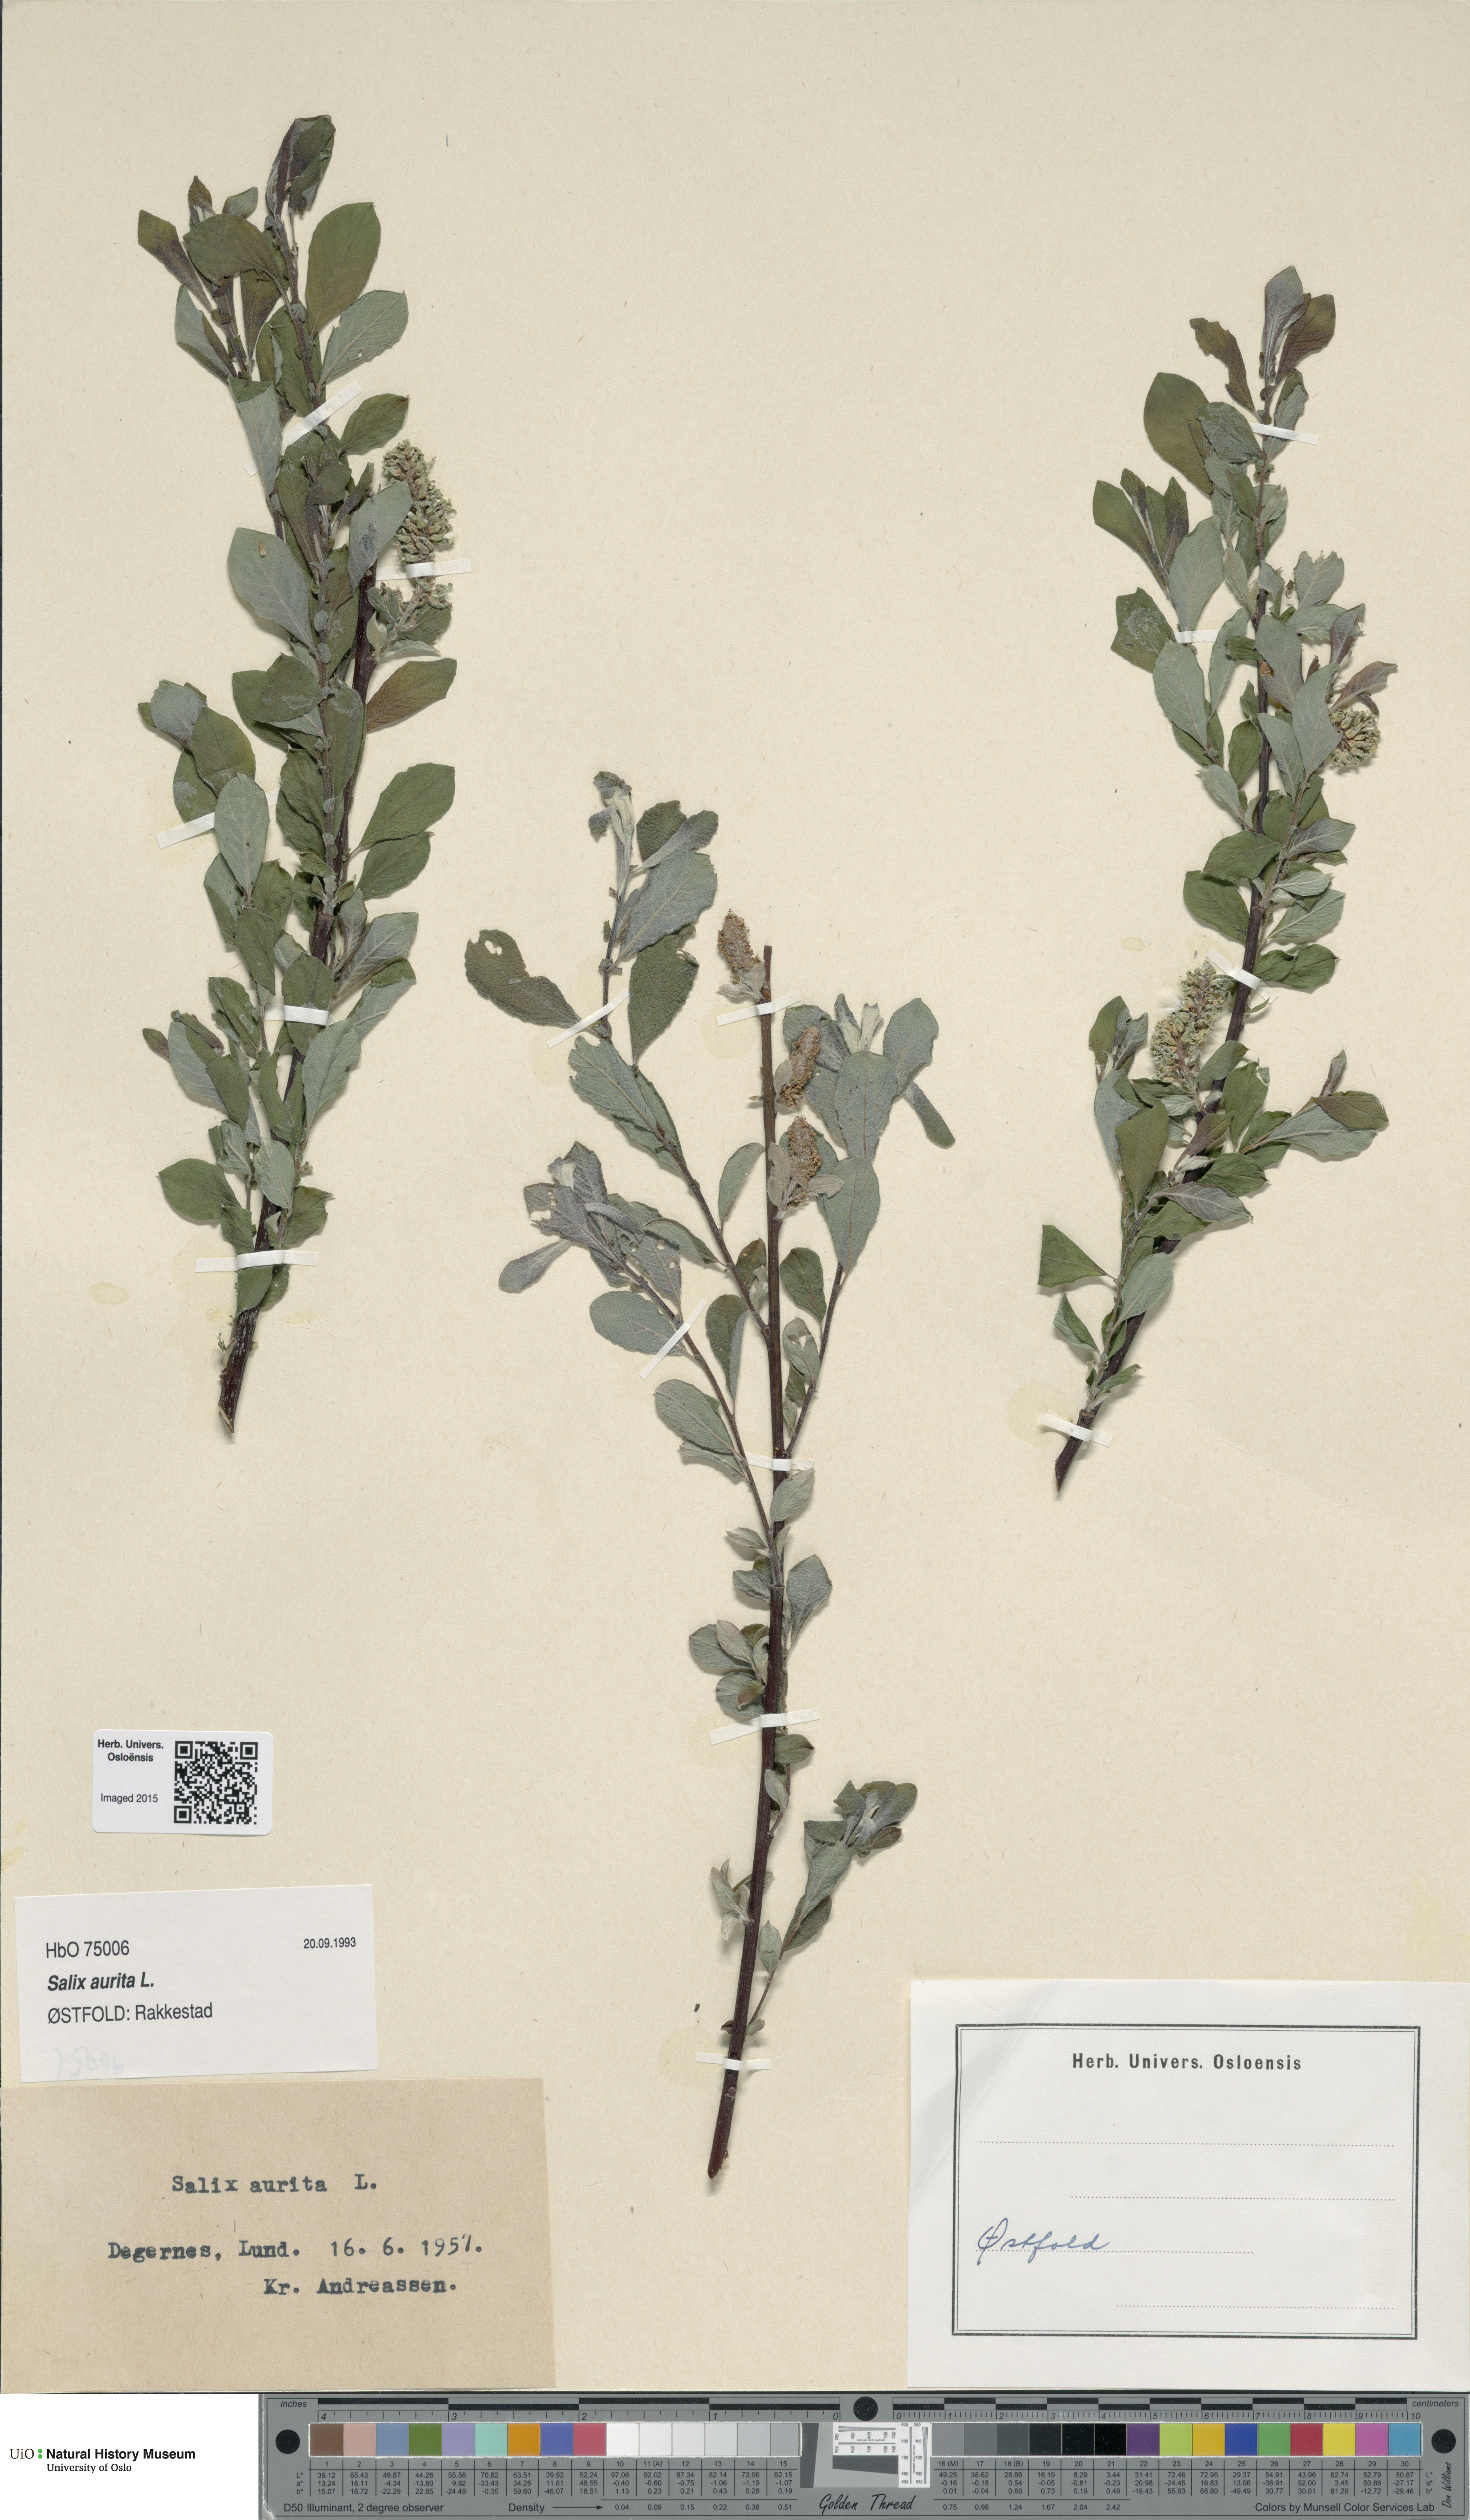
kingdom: Plantae
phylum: Tracheophyta
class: Magnoliopsida
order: Malpighiales
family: Salicaceae
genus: Salix
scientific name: Salix aurita
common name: Eared willow
